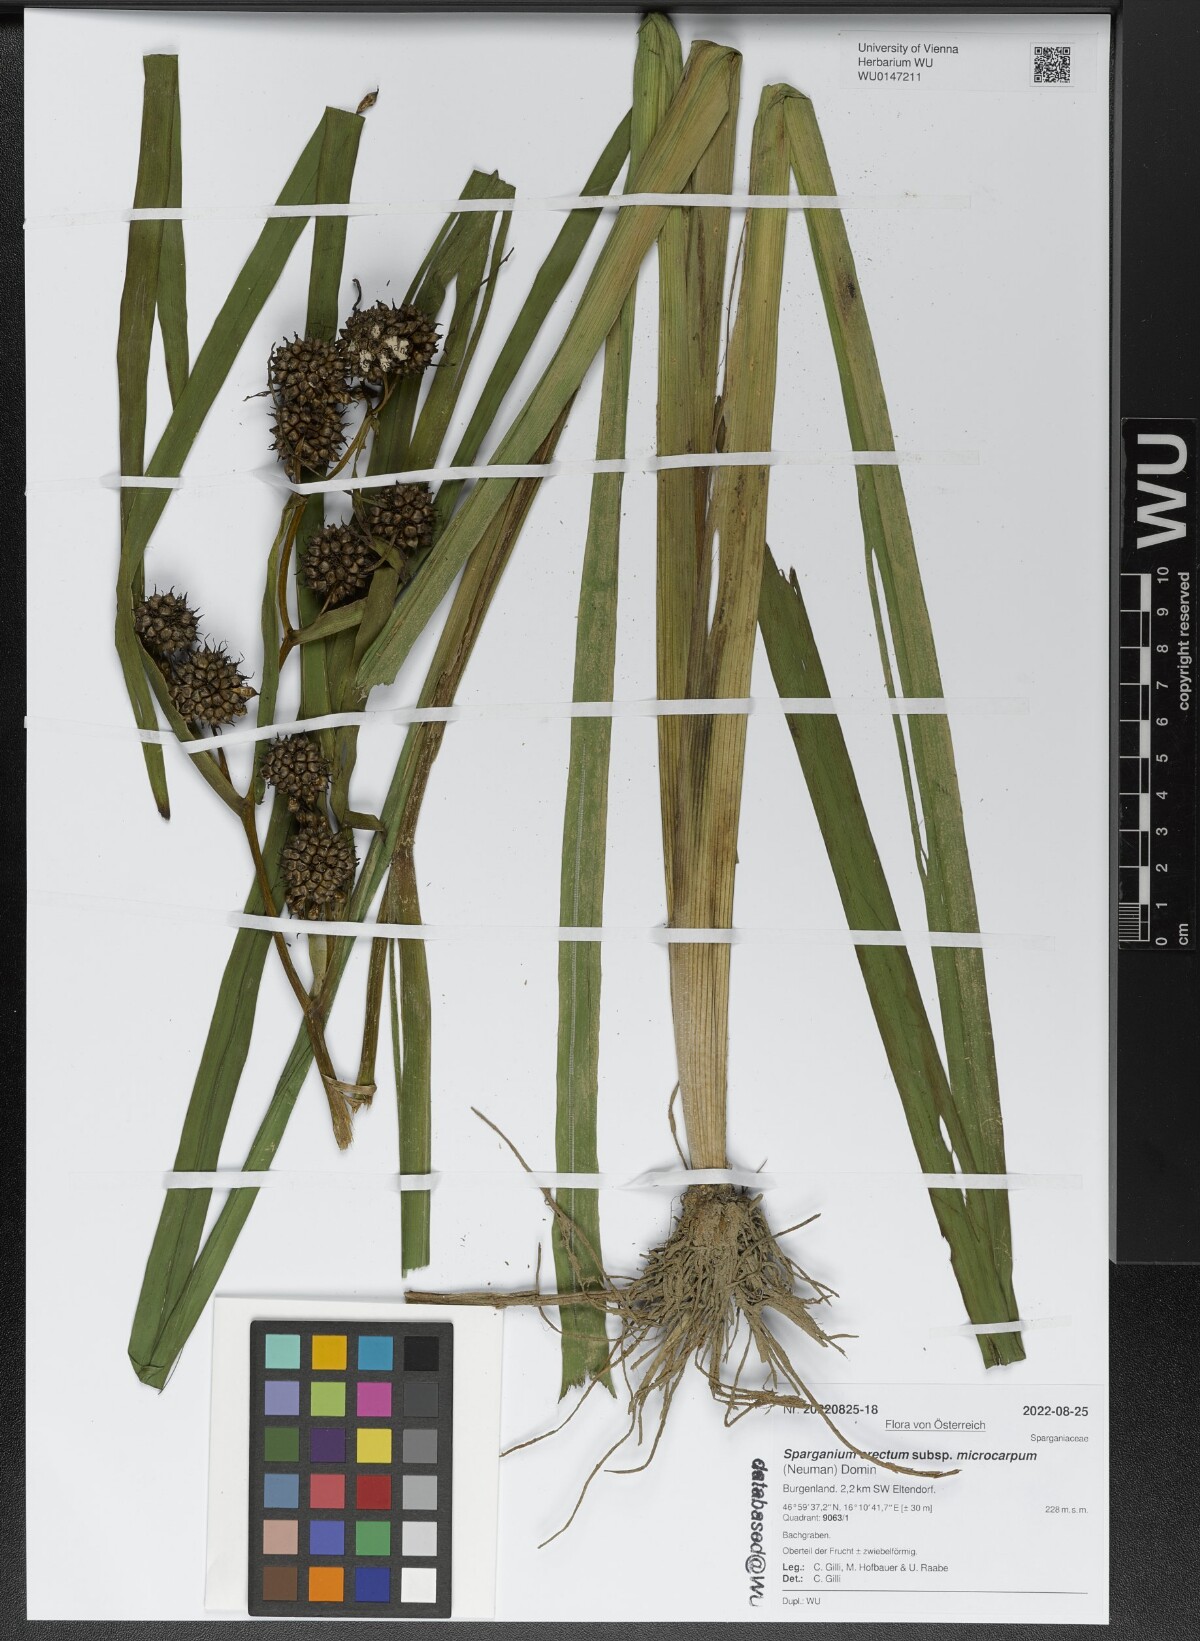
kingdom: Plantae
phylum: Tracheophyta
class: Liliopsida
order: Poales
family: Typhaceae
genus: Sparganium
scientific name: Sparganium erectum
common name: Branched bur-reed
